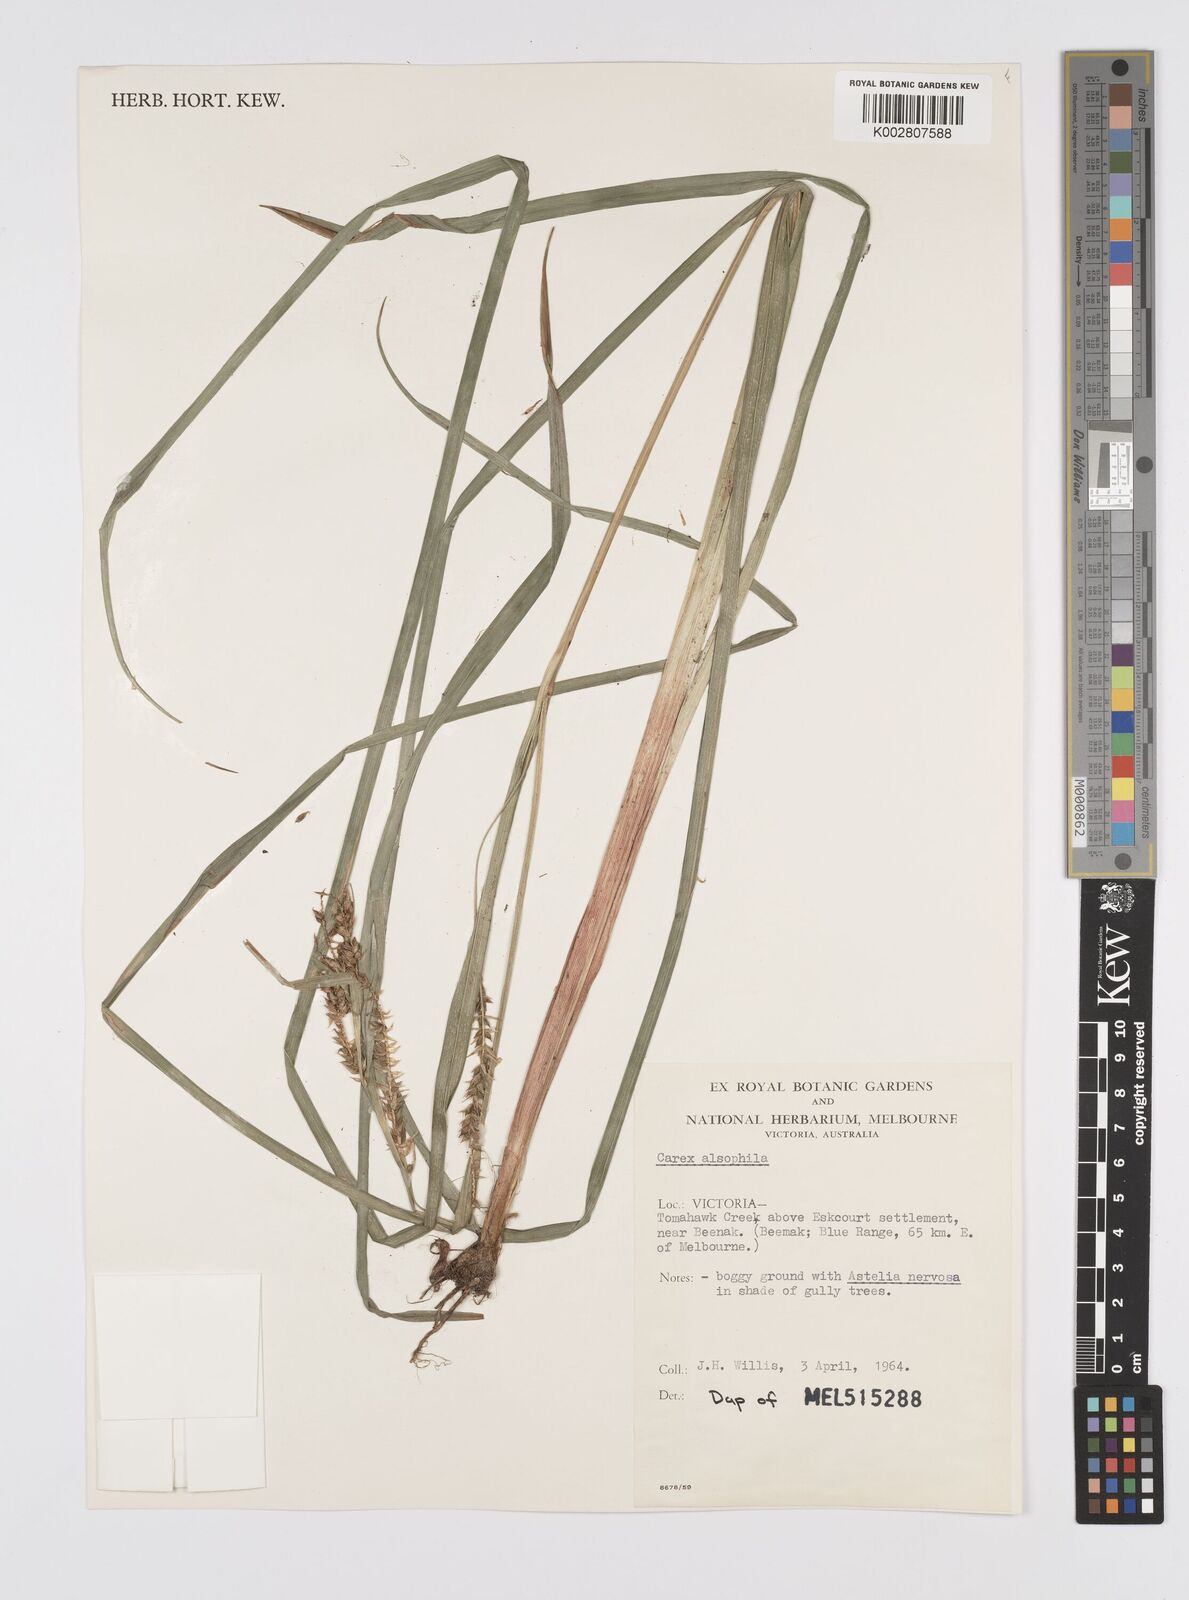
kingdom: Plantae
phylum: Tracheophyta
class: Liliopsida
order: Poales
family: Cyperaceae
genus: Carex
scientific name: Carex alsophila
